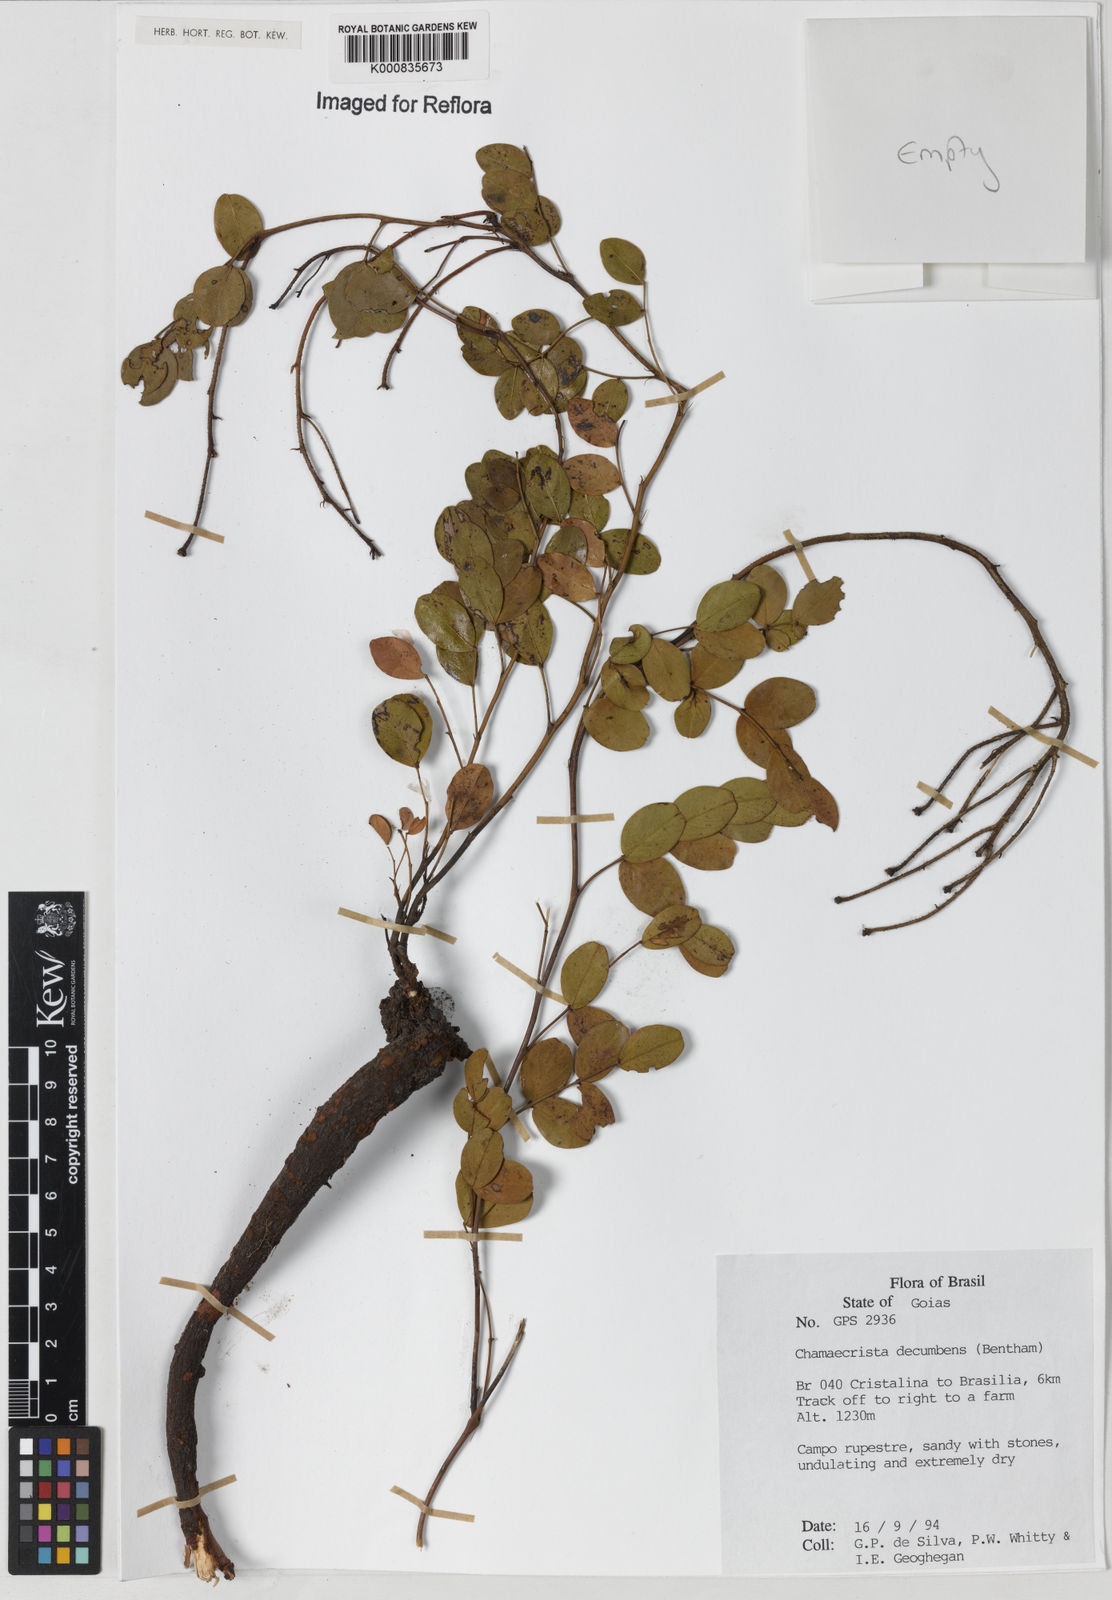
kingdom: Plantae
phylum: Tracheophyta
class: Magnoliopsida
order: Fabales
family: Fabaceae
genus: Chamaecrista
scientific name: Chamaecrista decumbens
